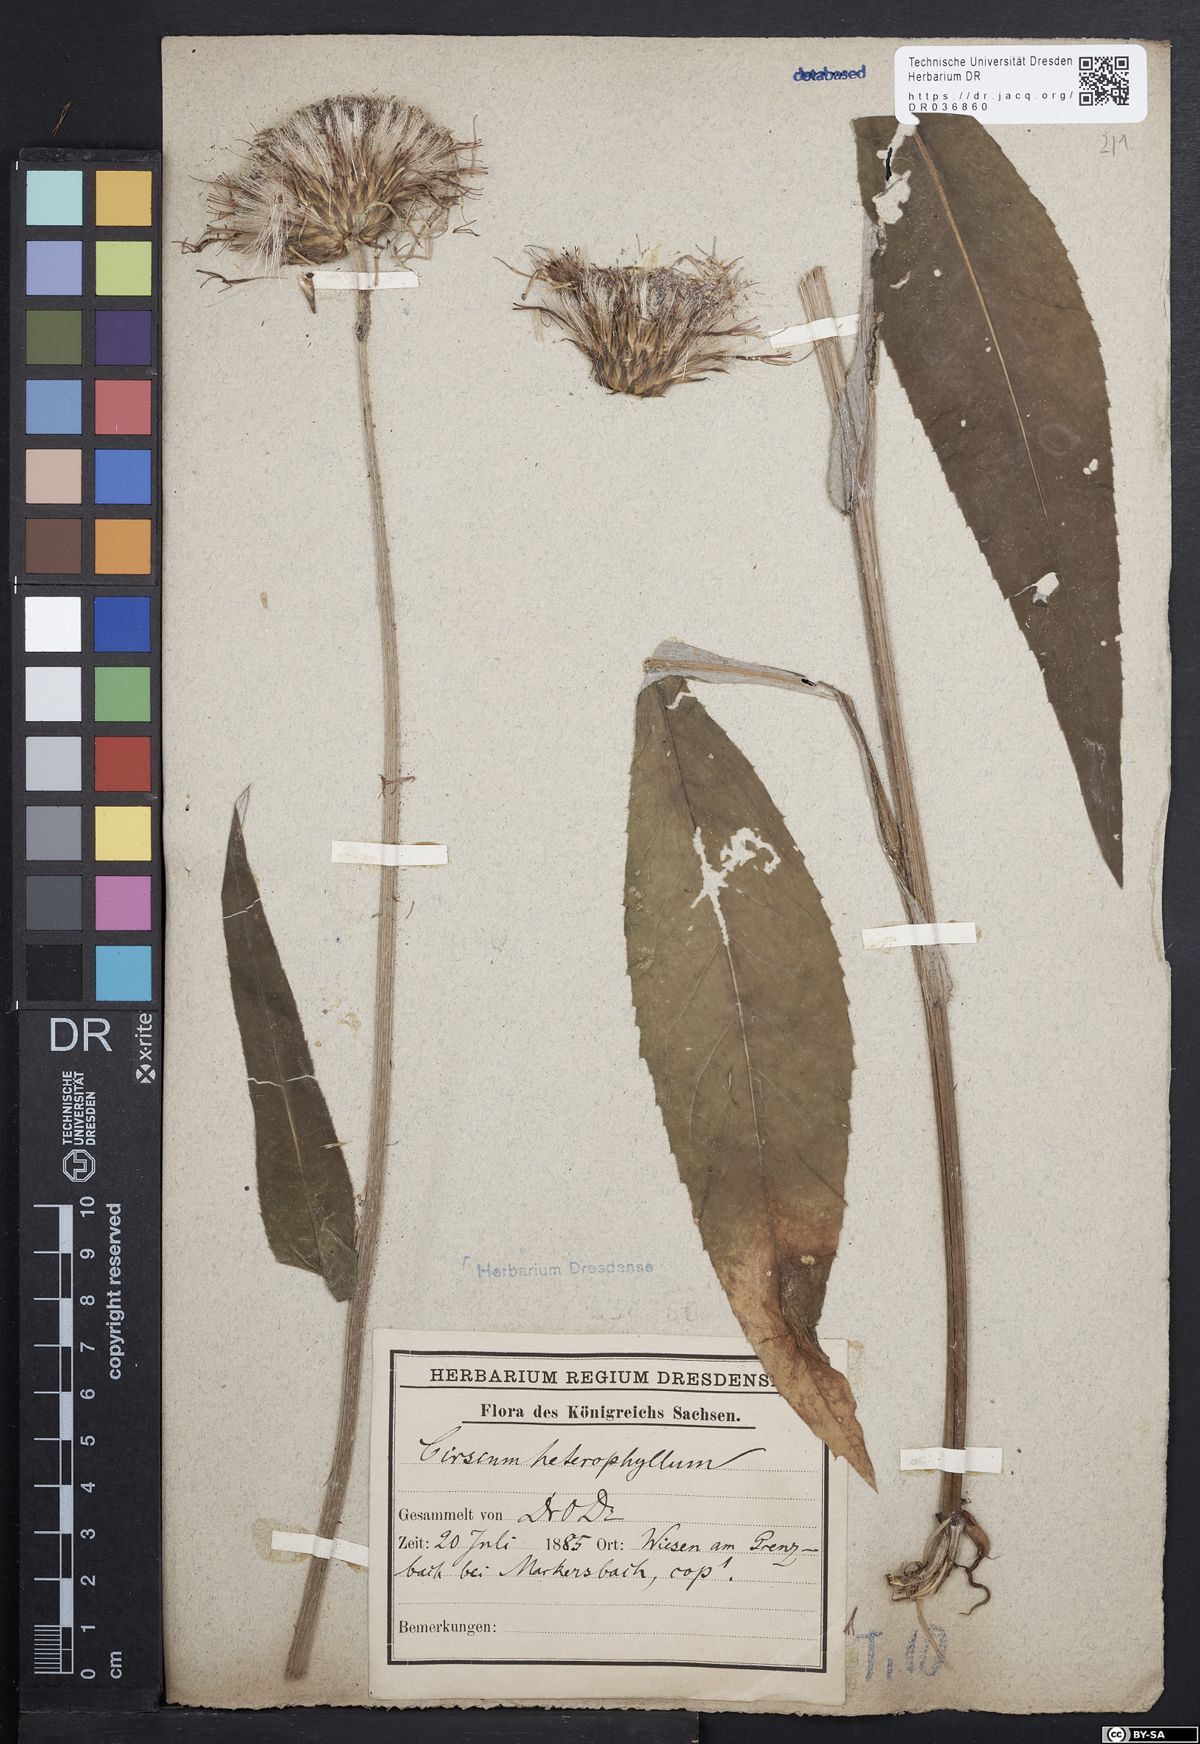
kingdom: Plantae
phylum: Tracheophyta
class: Magnoliopsida
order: Asterales
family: Asteraceae
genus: Cirsium
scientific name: Cirsium helenioides
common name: Melancholy thistle
